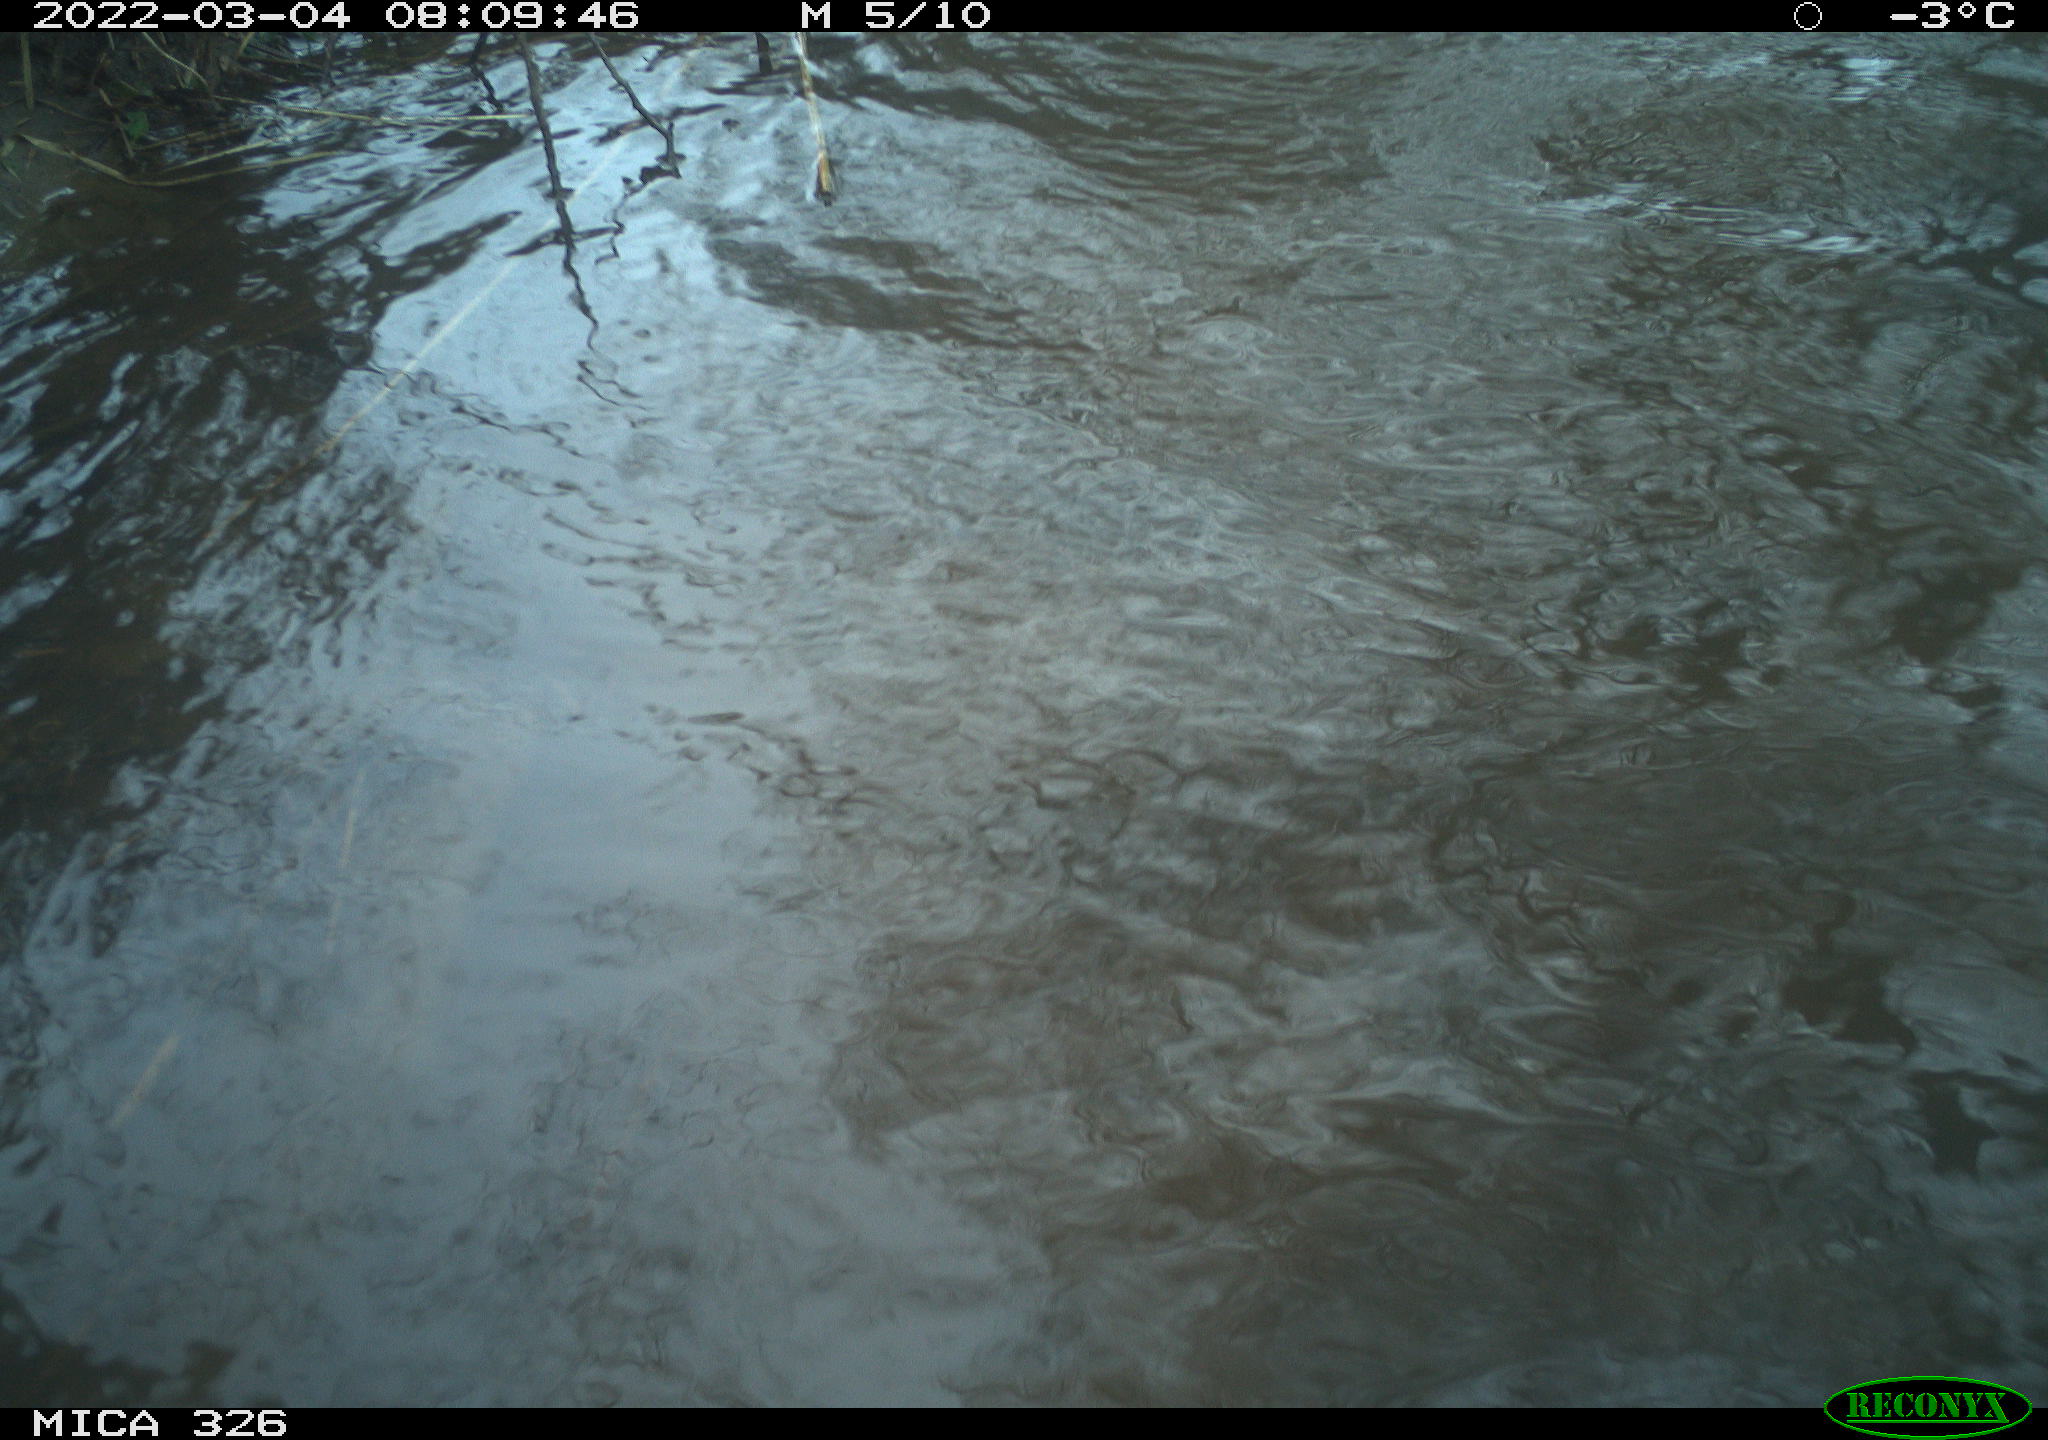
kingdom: Animalia
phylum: Chordata
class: Mammalia
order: Rodentia
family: Cricetidae
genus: Ondatra
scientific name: Ondatra zibethicus
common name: Muskrat
